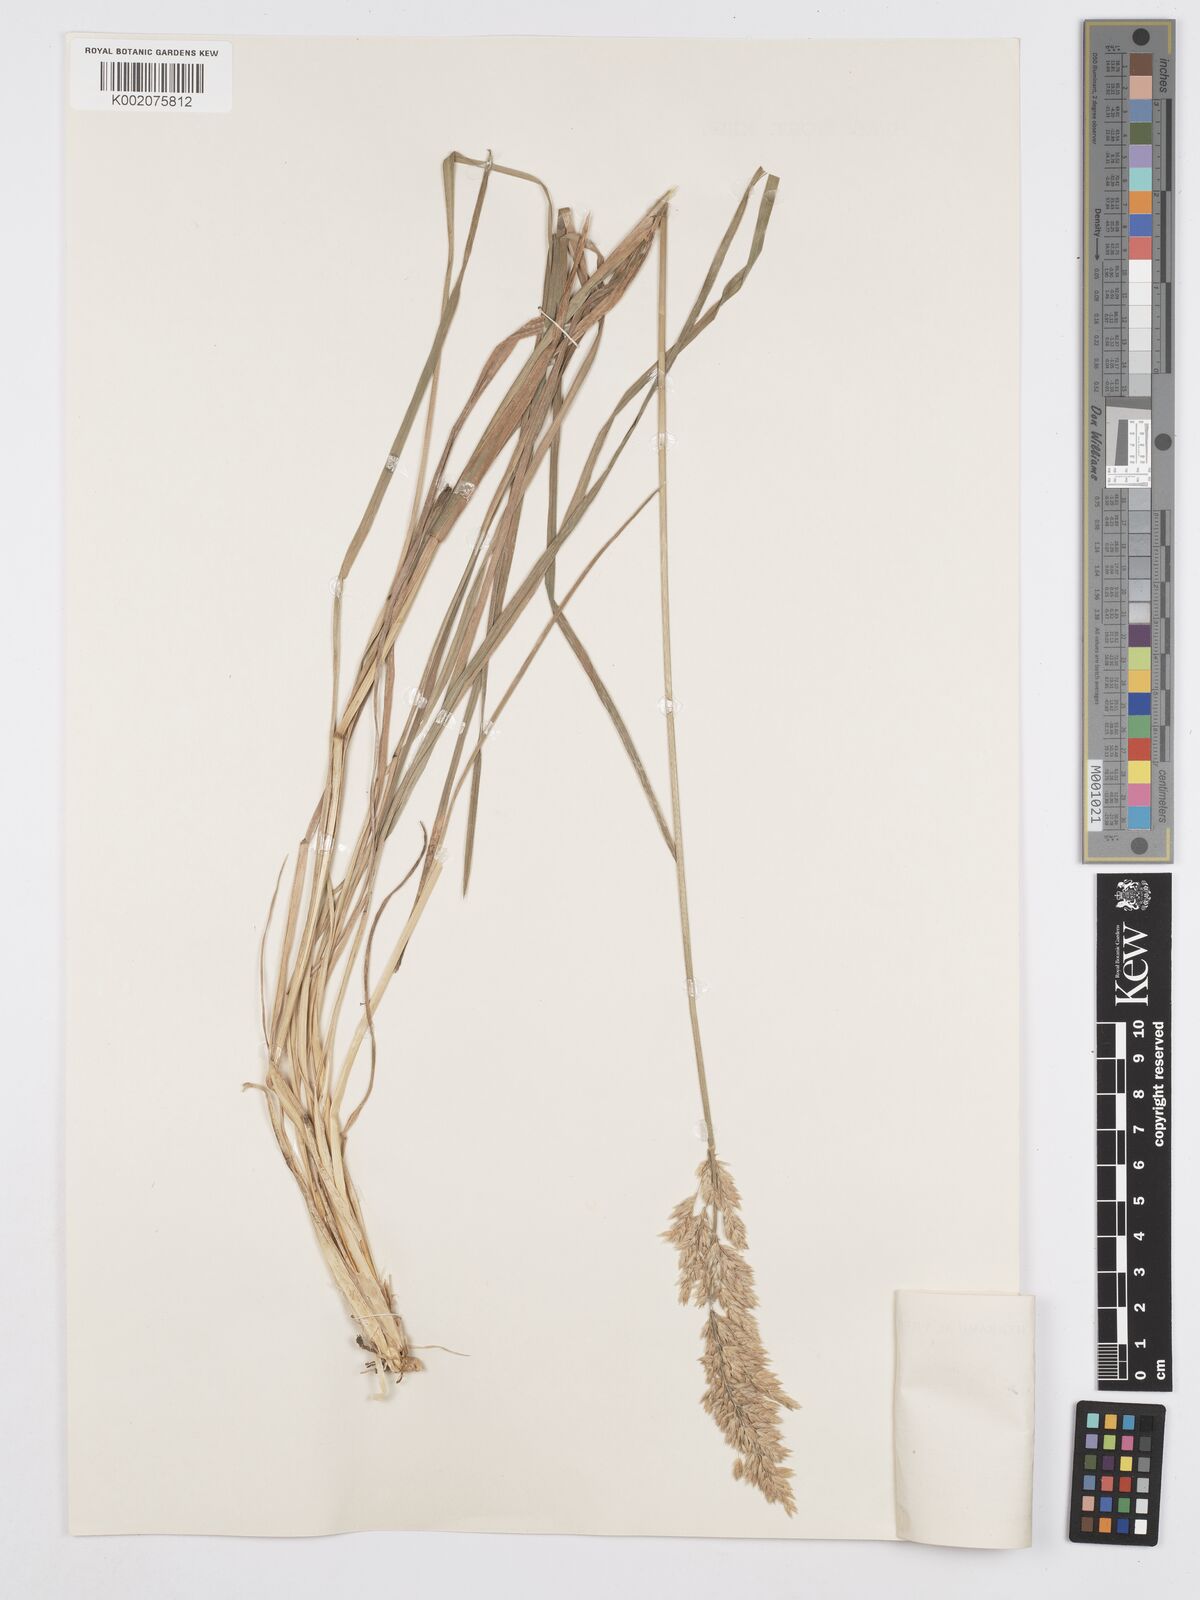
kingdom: Plantae
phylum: Tracheophyta
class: Liliopsida
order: Poales
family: Poaceae
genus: Poa
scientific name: Poa lanigera
